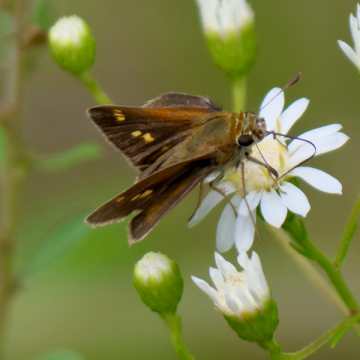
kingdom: Animalia
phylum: Arthropoda
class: Insecta
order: Lepidoptera
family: Hesperiidae
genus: Polites
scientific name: Polites themistocles
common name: Tawny-edged Skipper
